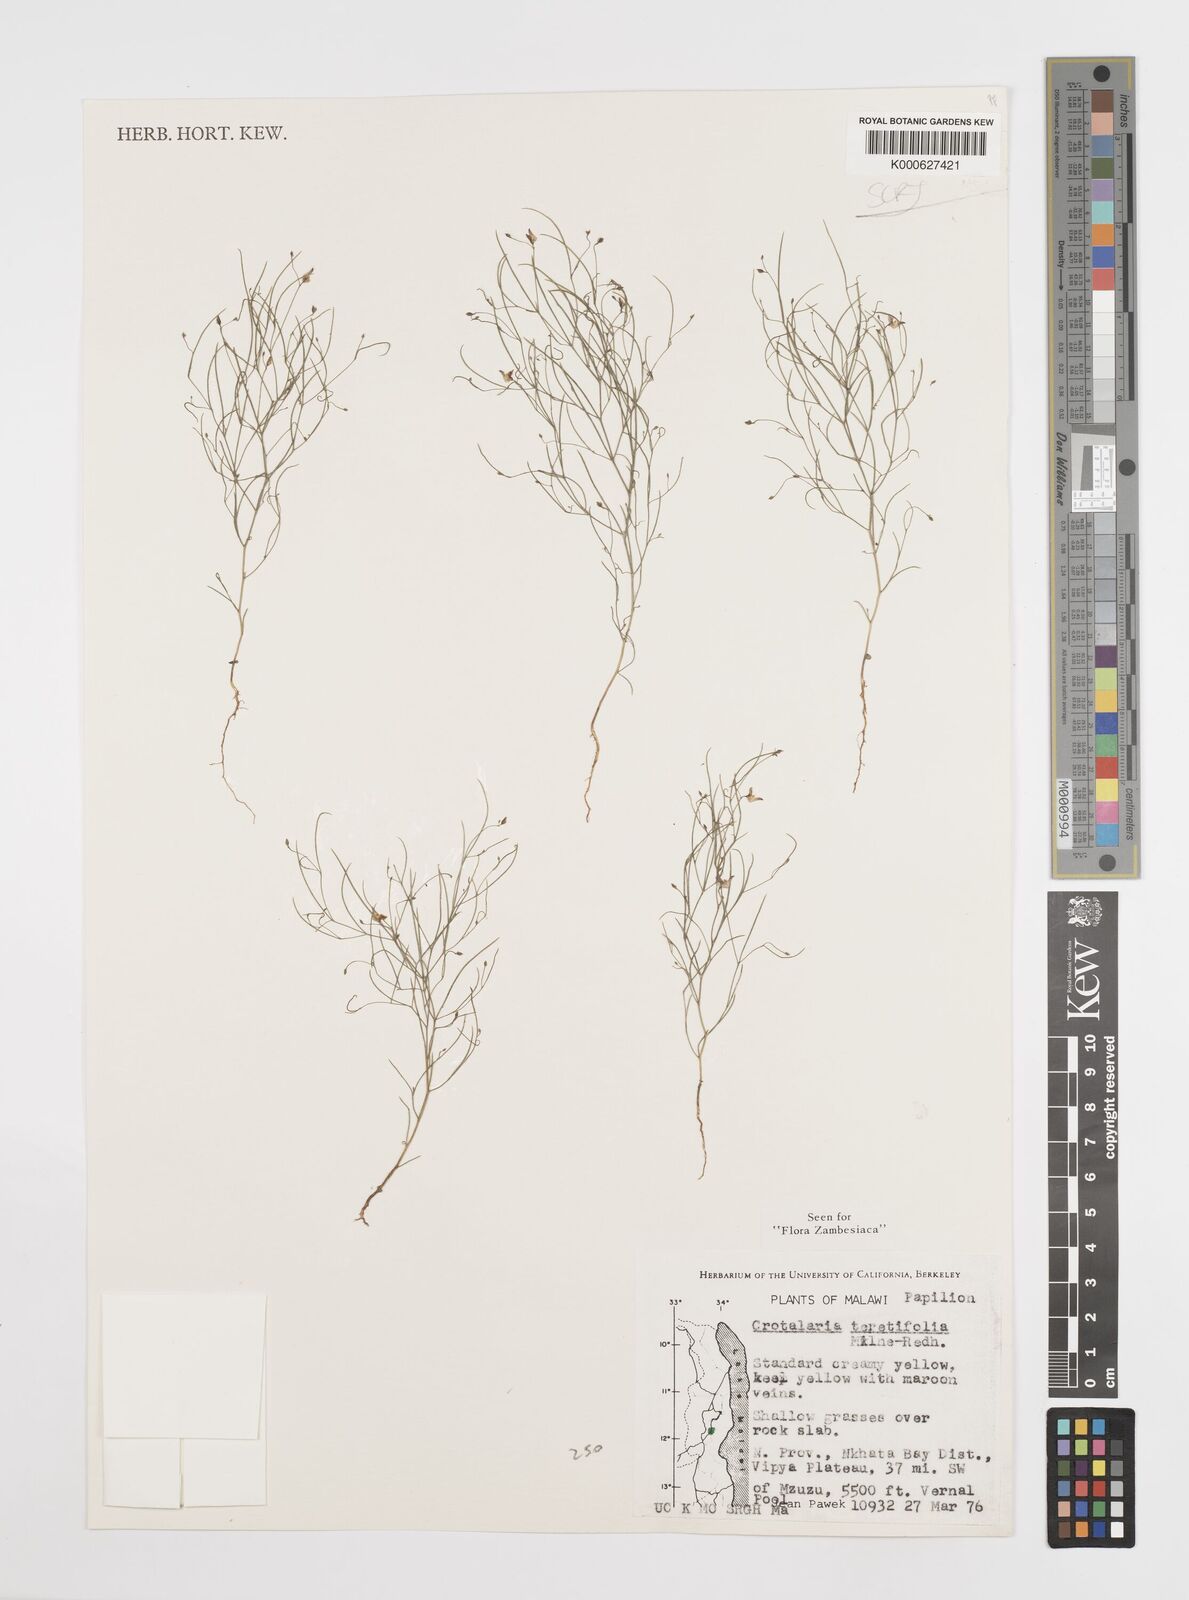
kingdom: Plantae
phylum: Tracheophyta
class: Magnoliopsida
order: Fabales
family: Fabaceae
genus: Crotalaria
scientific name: Crotalaria teretifolia
